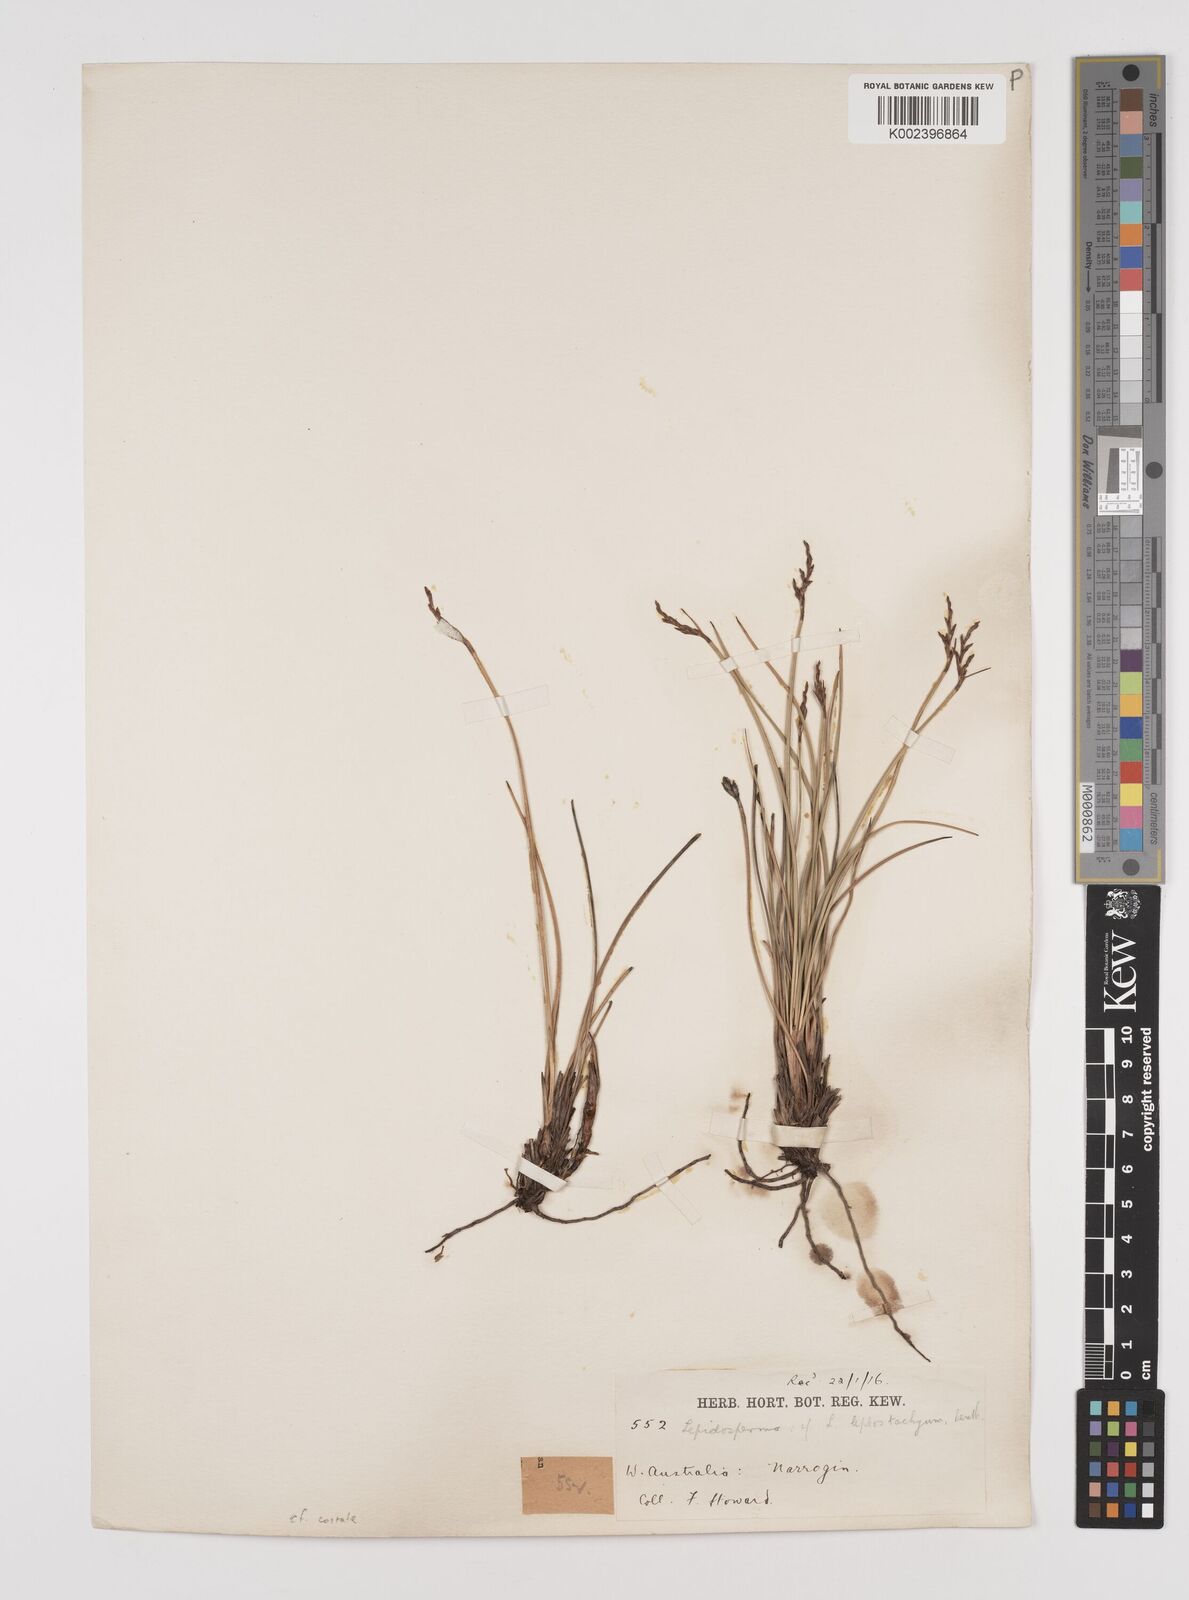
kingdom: Plantae
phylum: Tracheophyta
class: Liliopsida
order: Poales
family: Cyperaceae
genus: Lepidosperma
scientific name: Lepidosperma costale
